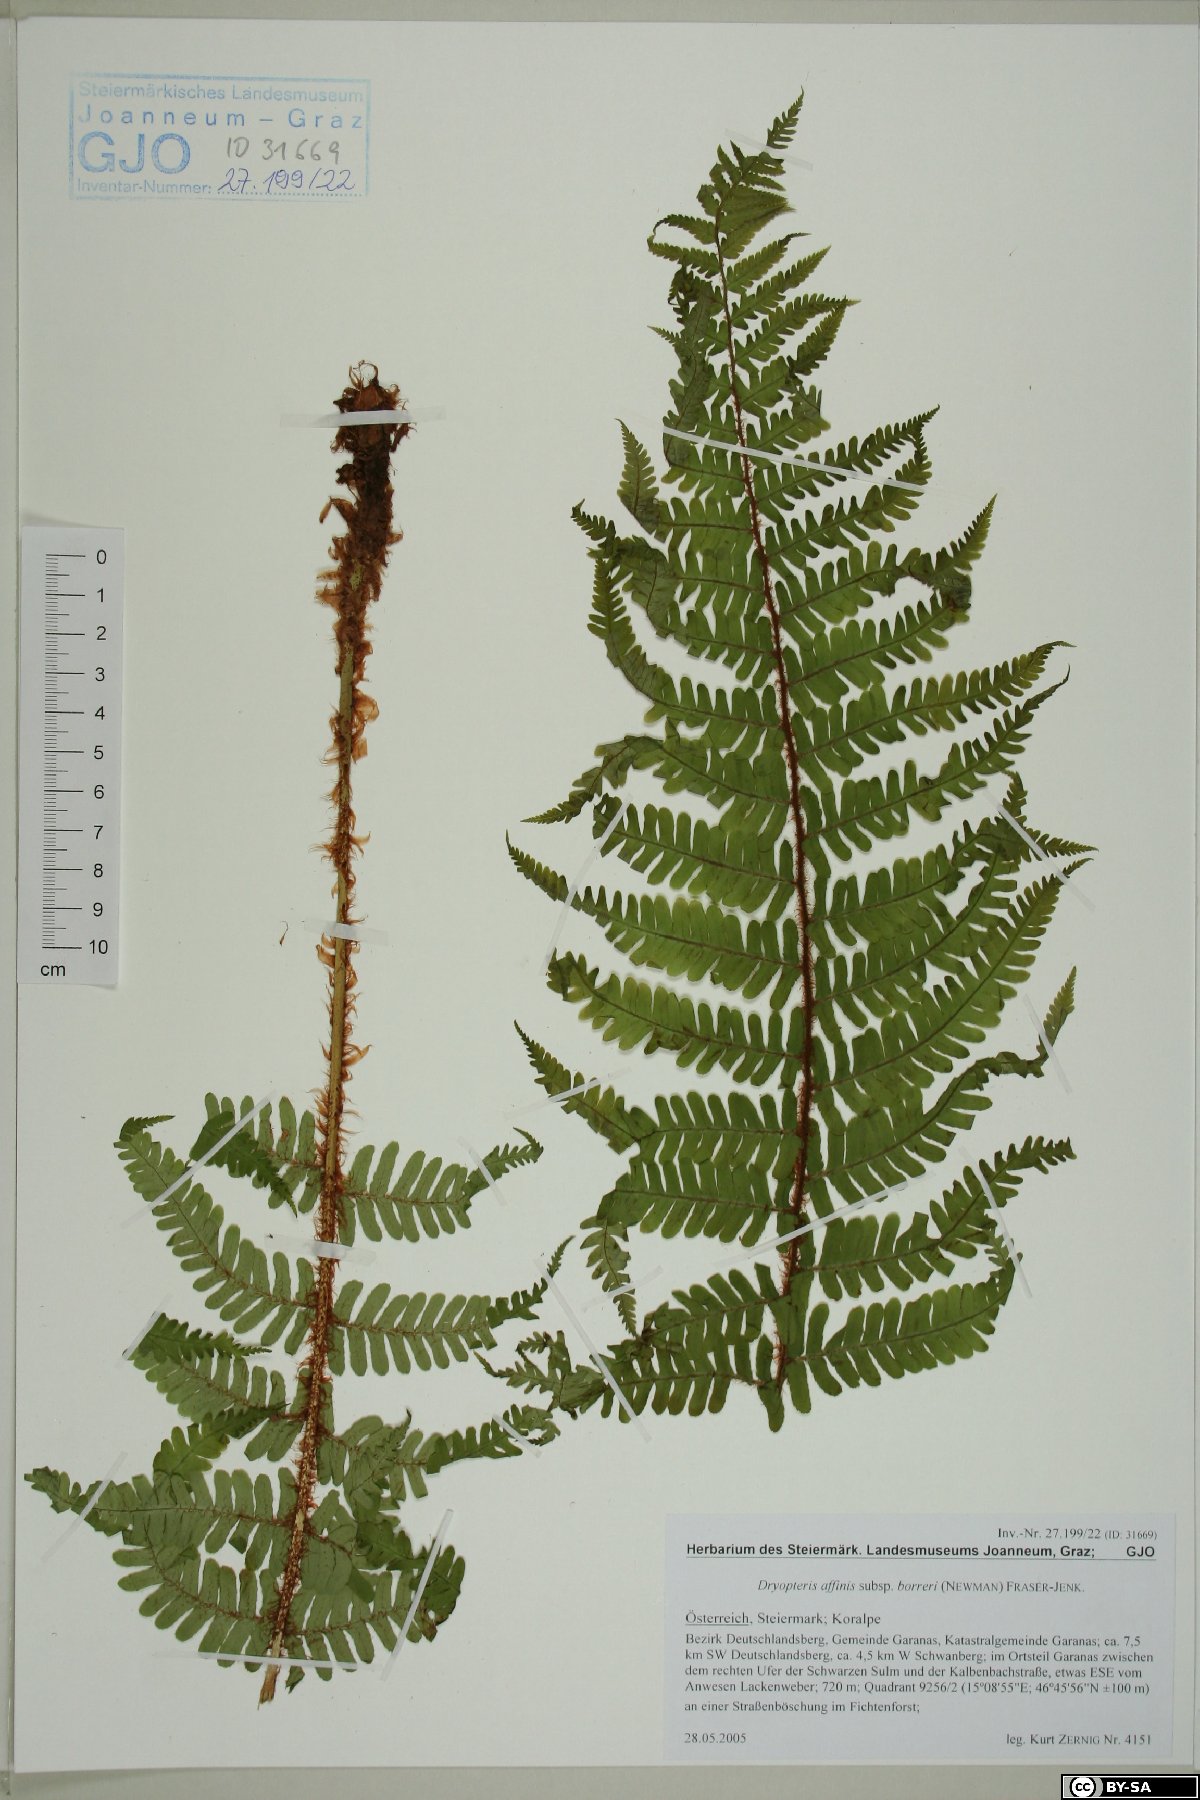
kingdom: Plantae
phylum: Tracheophyta
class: Polypodiopsida
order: Polypodiales
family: Dryopteridaceae
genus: Dryopteris
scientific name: Dryopteris borreri
